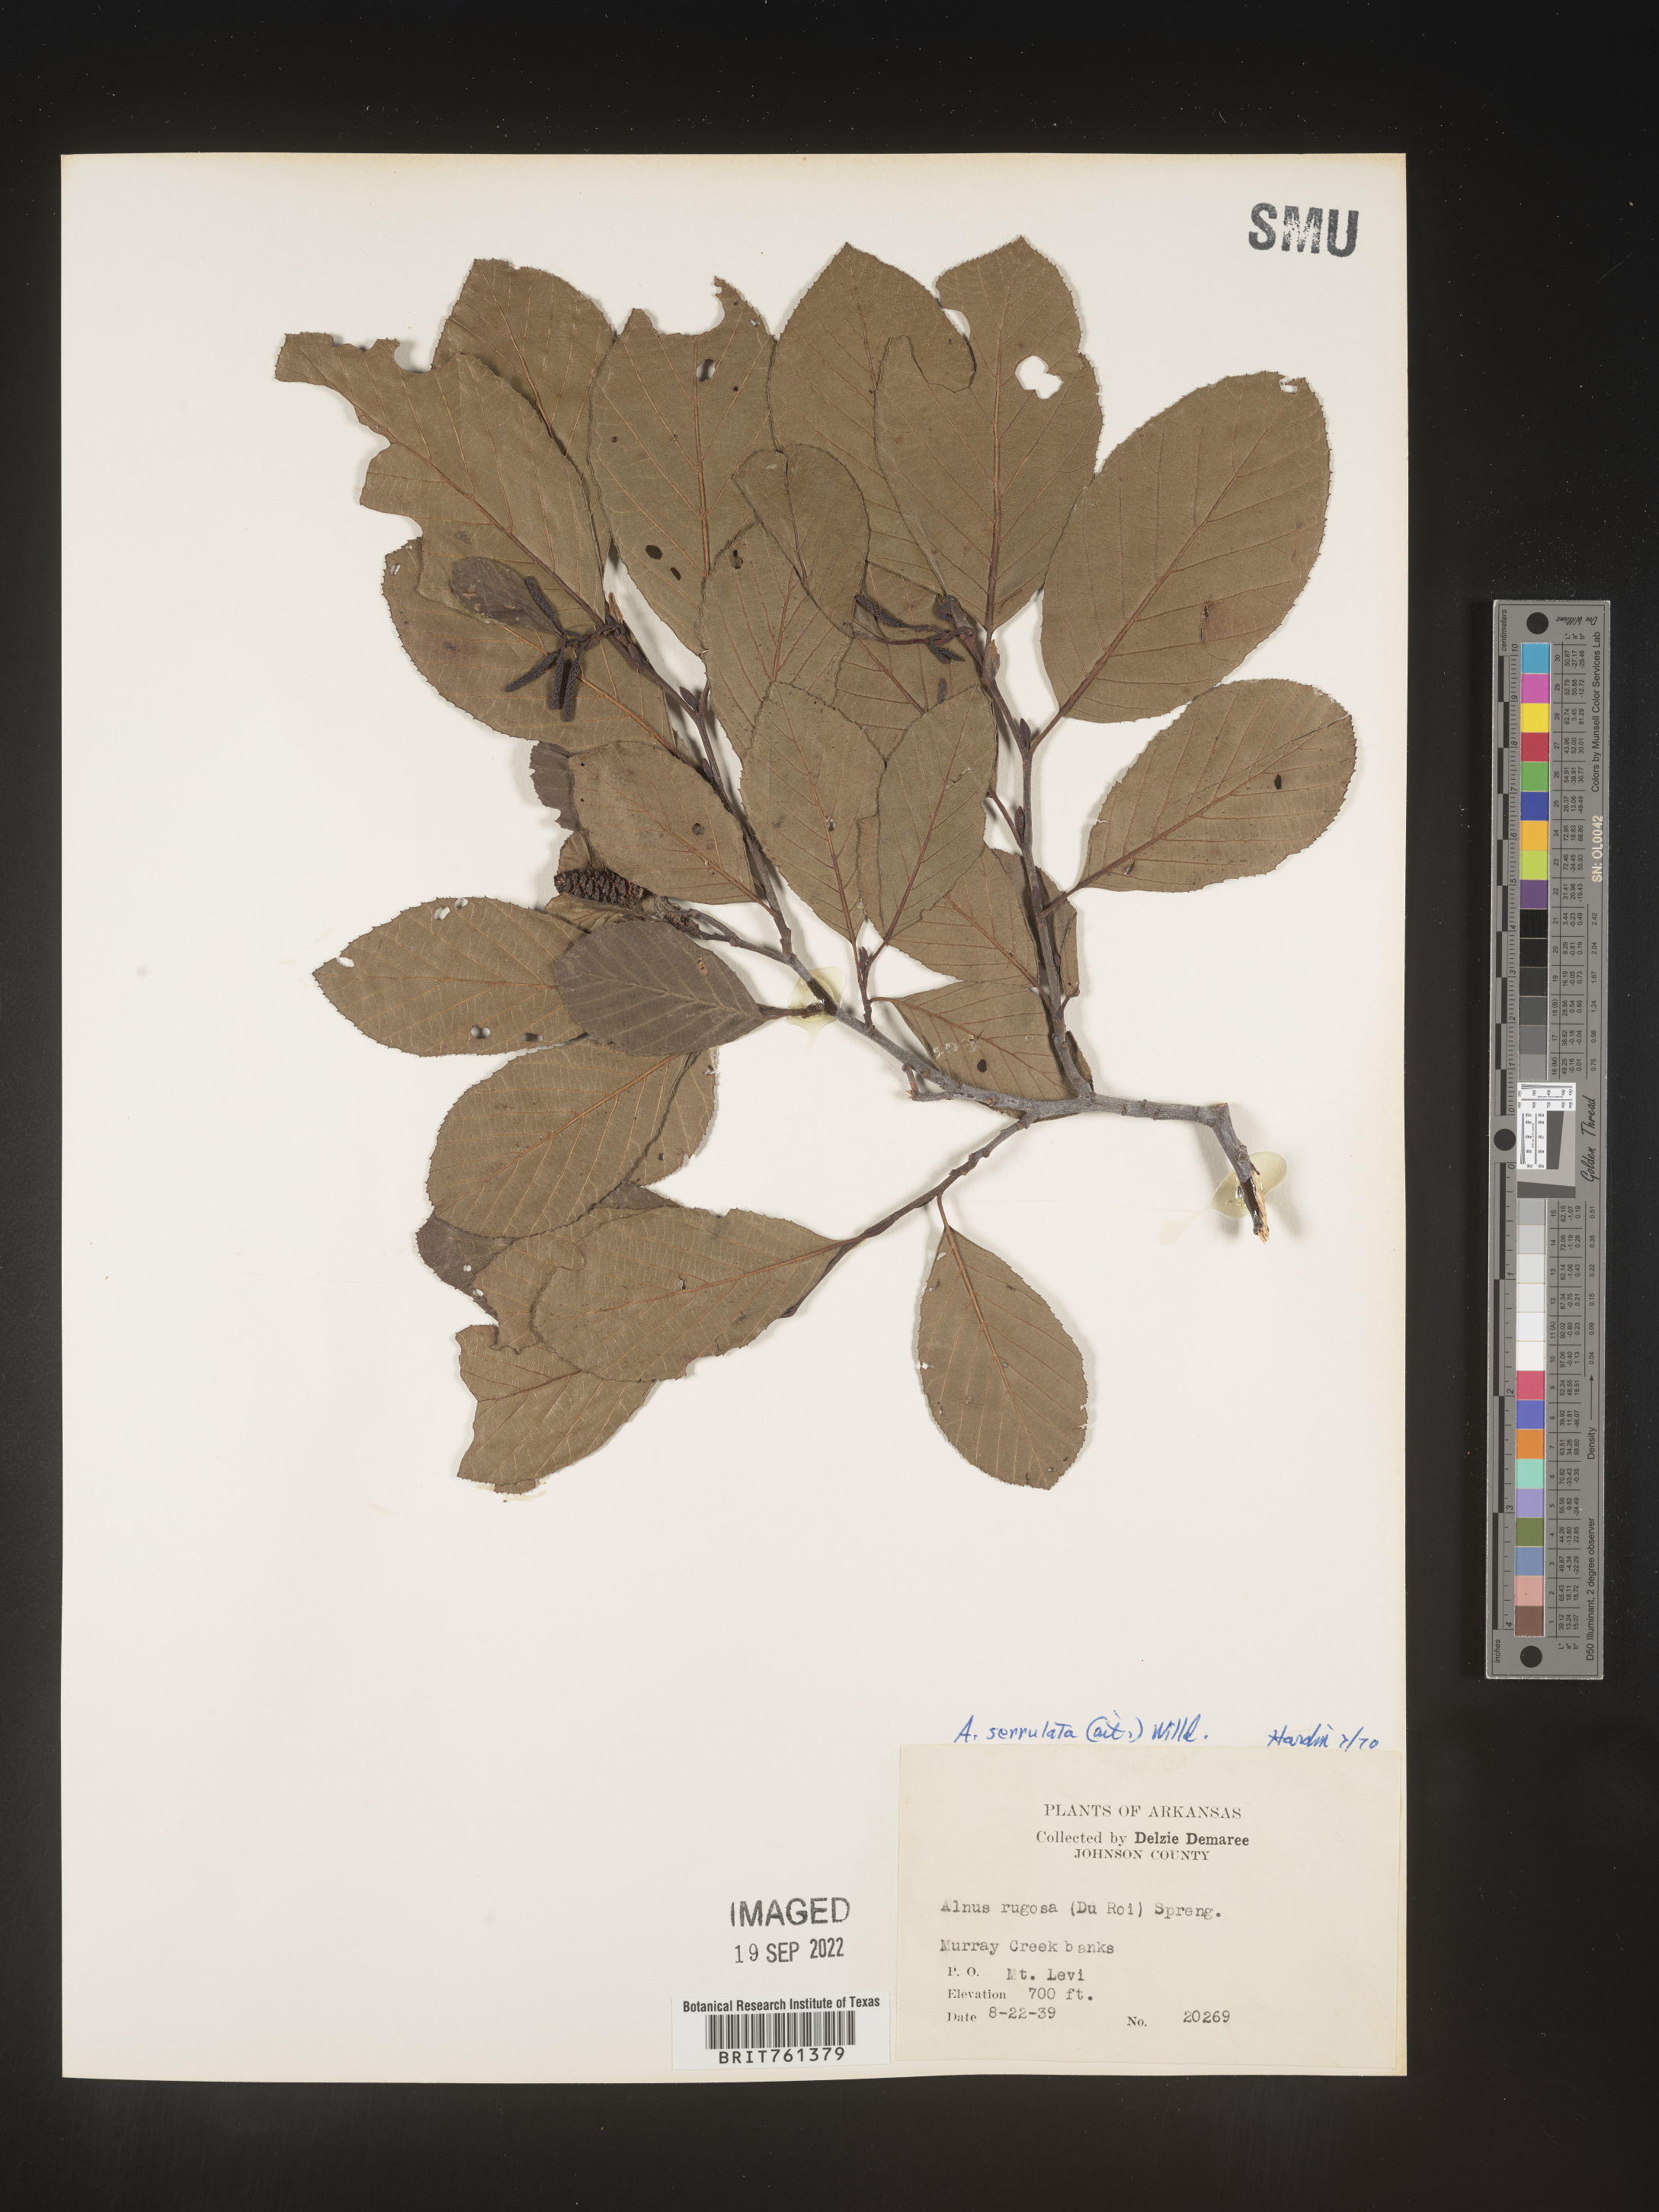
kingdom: Plantae
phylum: Tracheophyta
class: Magnoliopsida
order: Fagales
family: Betulaceae
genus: Alnus
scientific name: Alnus serrulata
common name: Hazel alder
